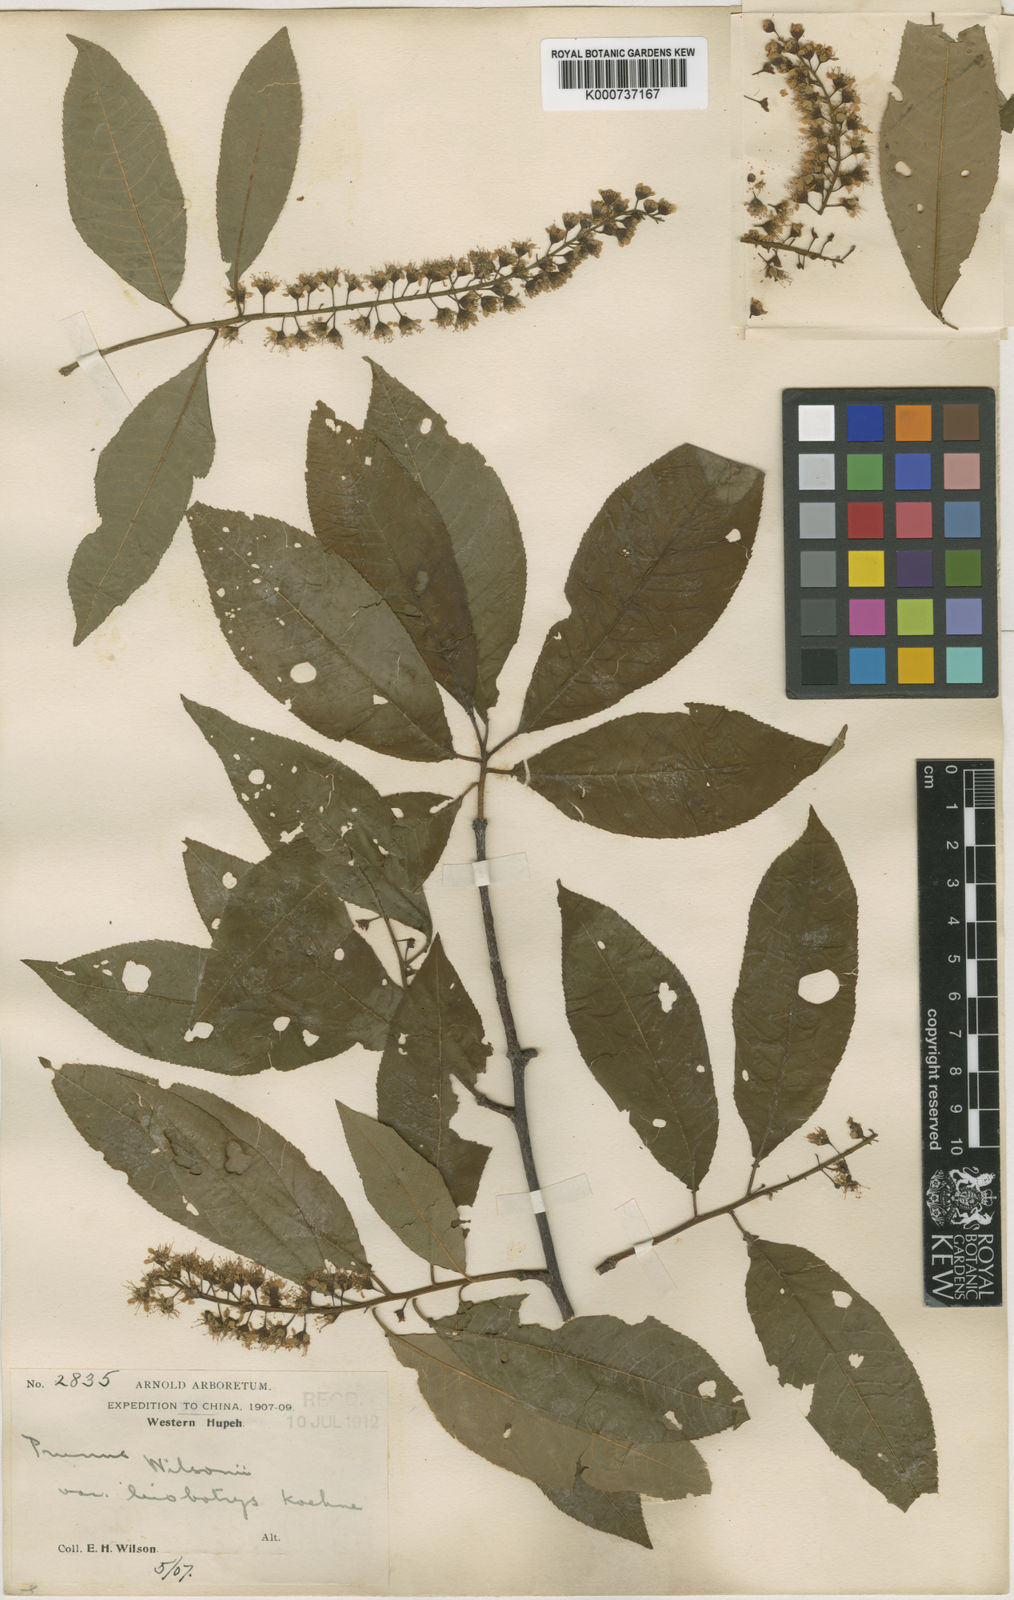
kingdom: Plantae
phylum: Tracheophyta
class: Magnoliopsida
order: Rosales
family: Rosaceae
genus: Prunus
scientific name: Prunus wilsonii
